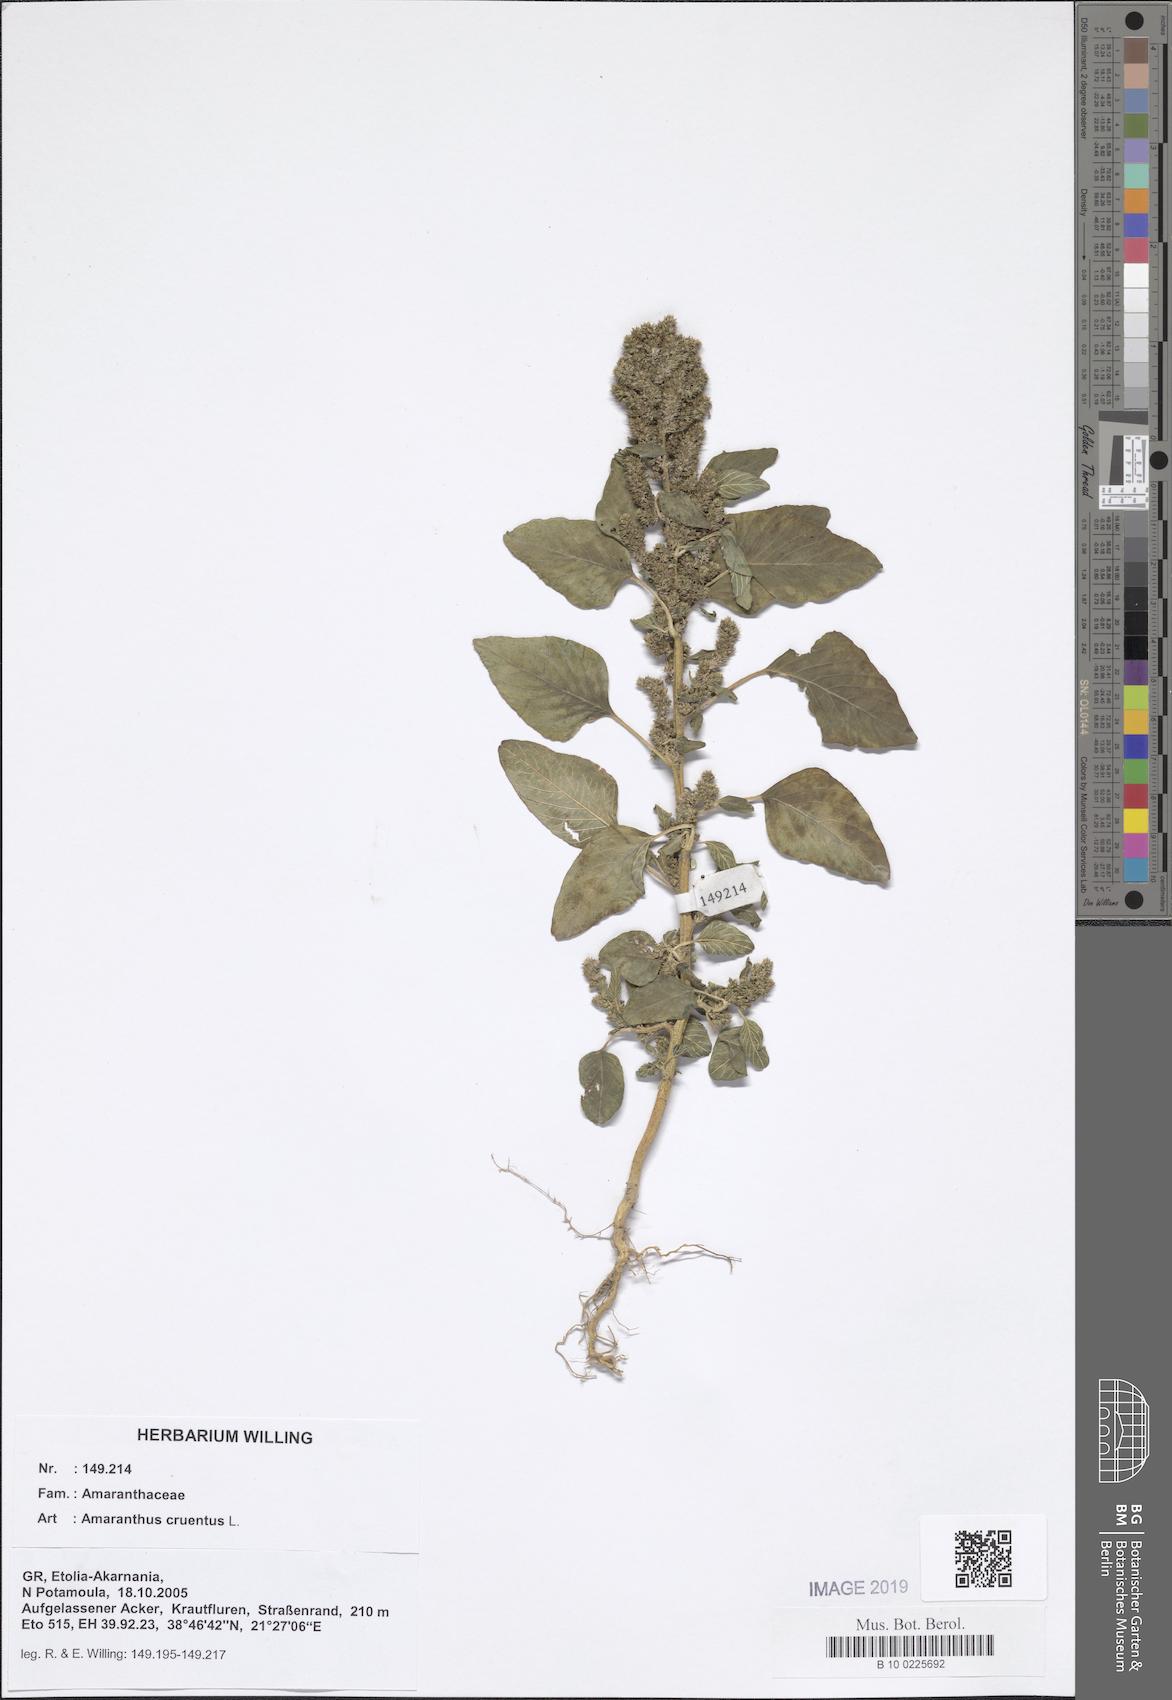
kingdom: Plantae
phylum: Tracheophyta
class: Magnoliopsida
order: Caryophyllales
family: Amaranthaceae
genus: Amaranthus
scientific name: Amaranthus cruentus
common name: Purple amaranth
